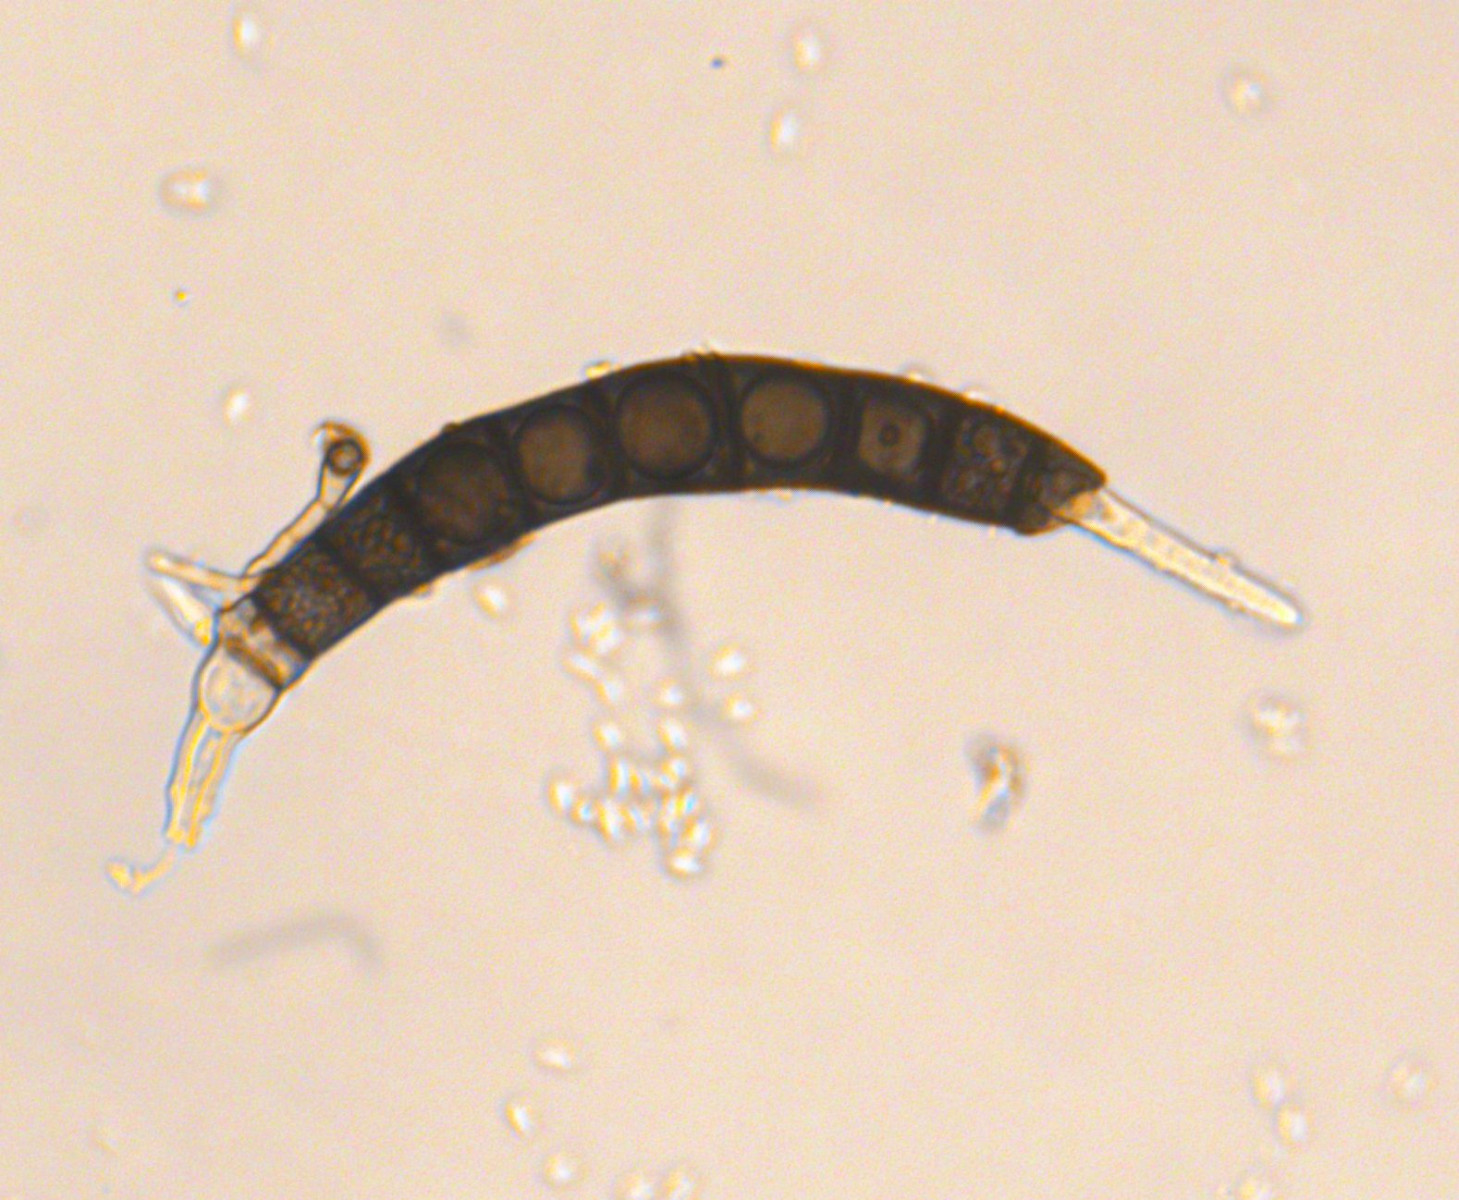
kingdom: Fungi
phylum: Ascomycota
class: Dothideomycetes
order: Pleosporales
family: Pleomassariaceae
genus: Asteromassaria
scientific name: Asteromassaria macrospora
